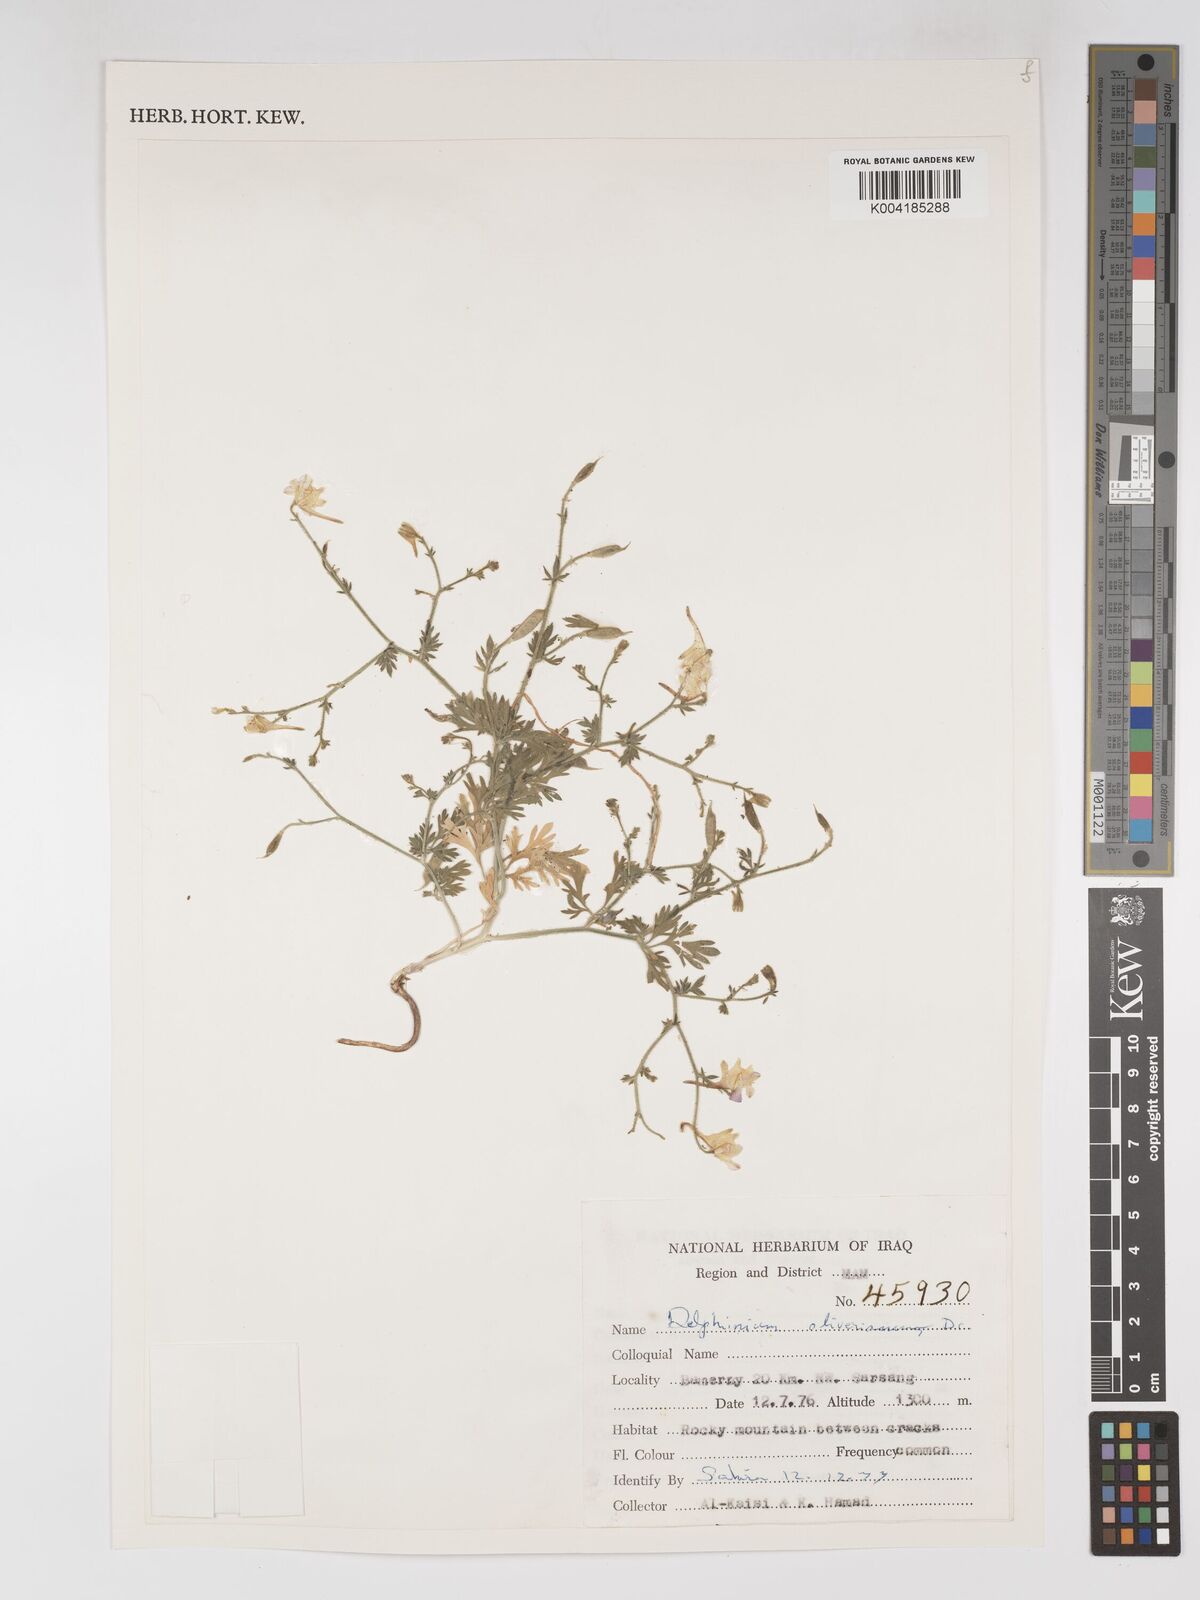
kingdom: Plantae
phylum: Tracheophyta
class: Magnoliopsida
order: Ranunculales
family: Ranunculaceae
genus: Delphinium
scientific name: Delphinium oliverianum
